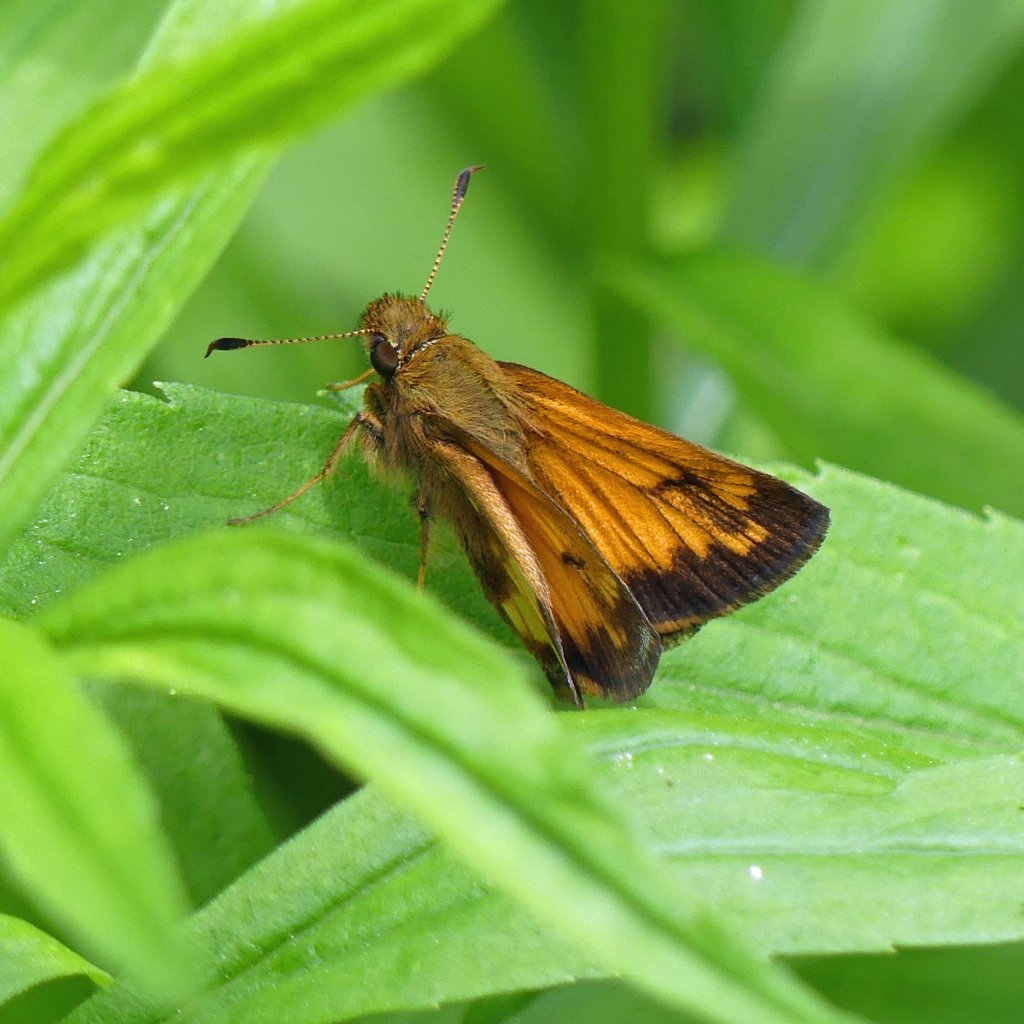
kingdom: Animalia
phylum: Arthropoda
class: Insecta
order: Lepidoptera
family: Hesperiidae
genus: Lon
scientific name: Lon hobomok
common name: Hobomok Skipper
